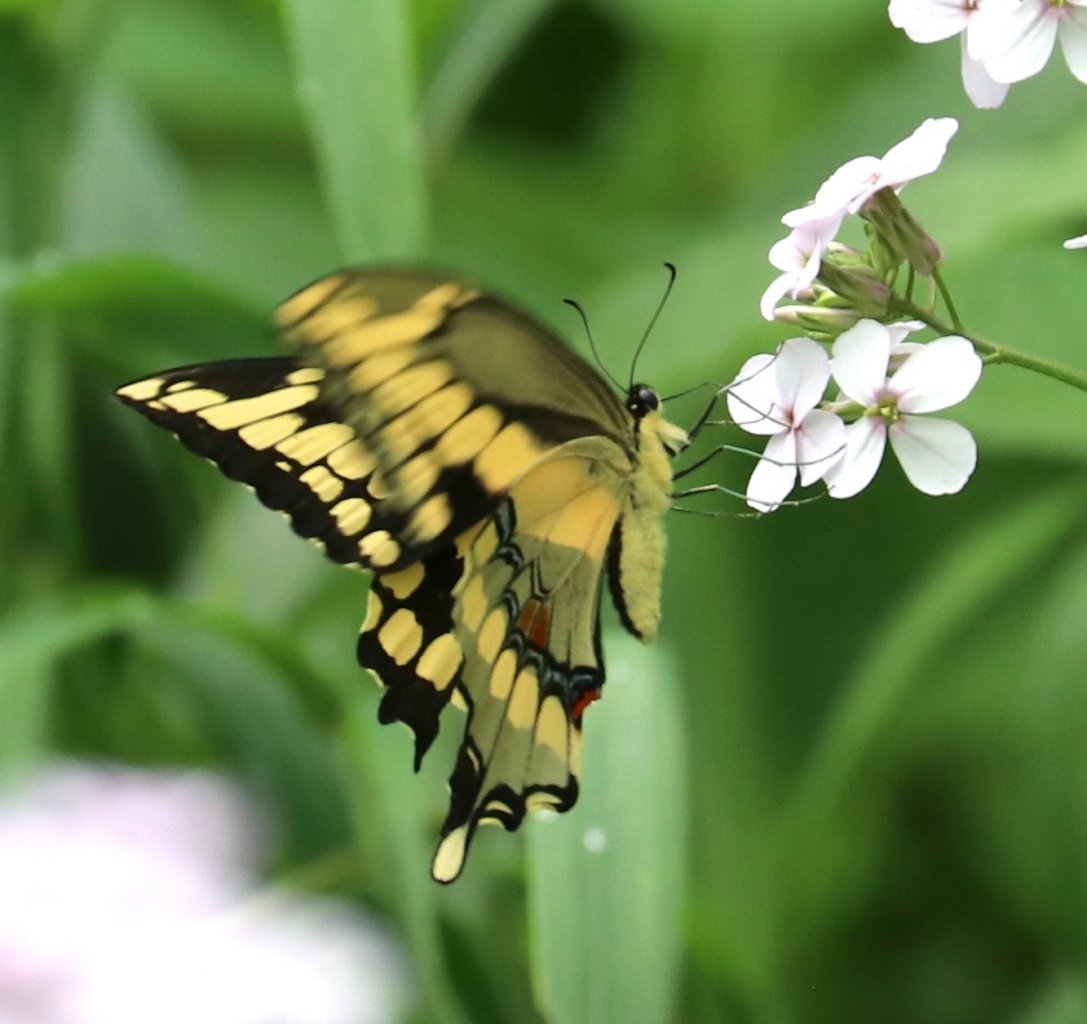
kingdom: Animalia
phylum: Arthropoda
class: Insecta
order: Lepidoptera
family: Papilionidae
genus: Papilio
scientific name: Papilio cresphontes
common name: Eastern Giant Swallowtail
